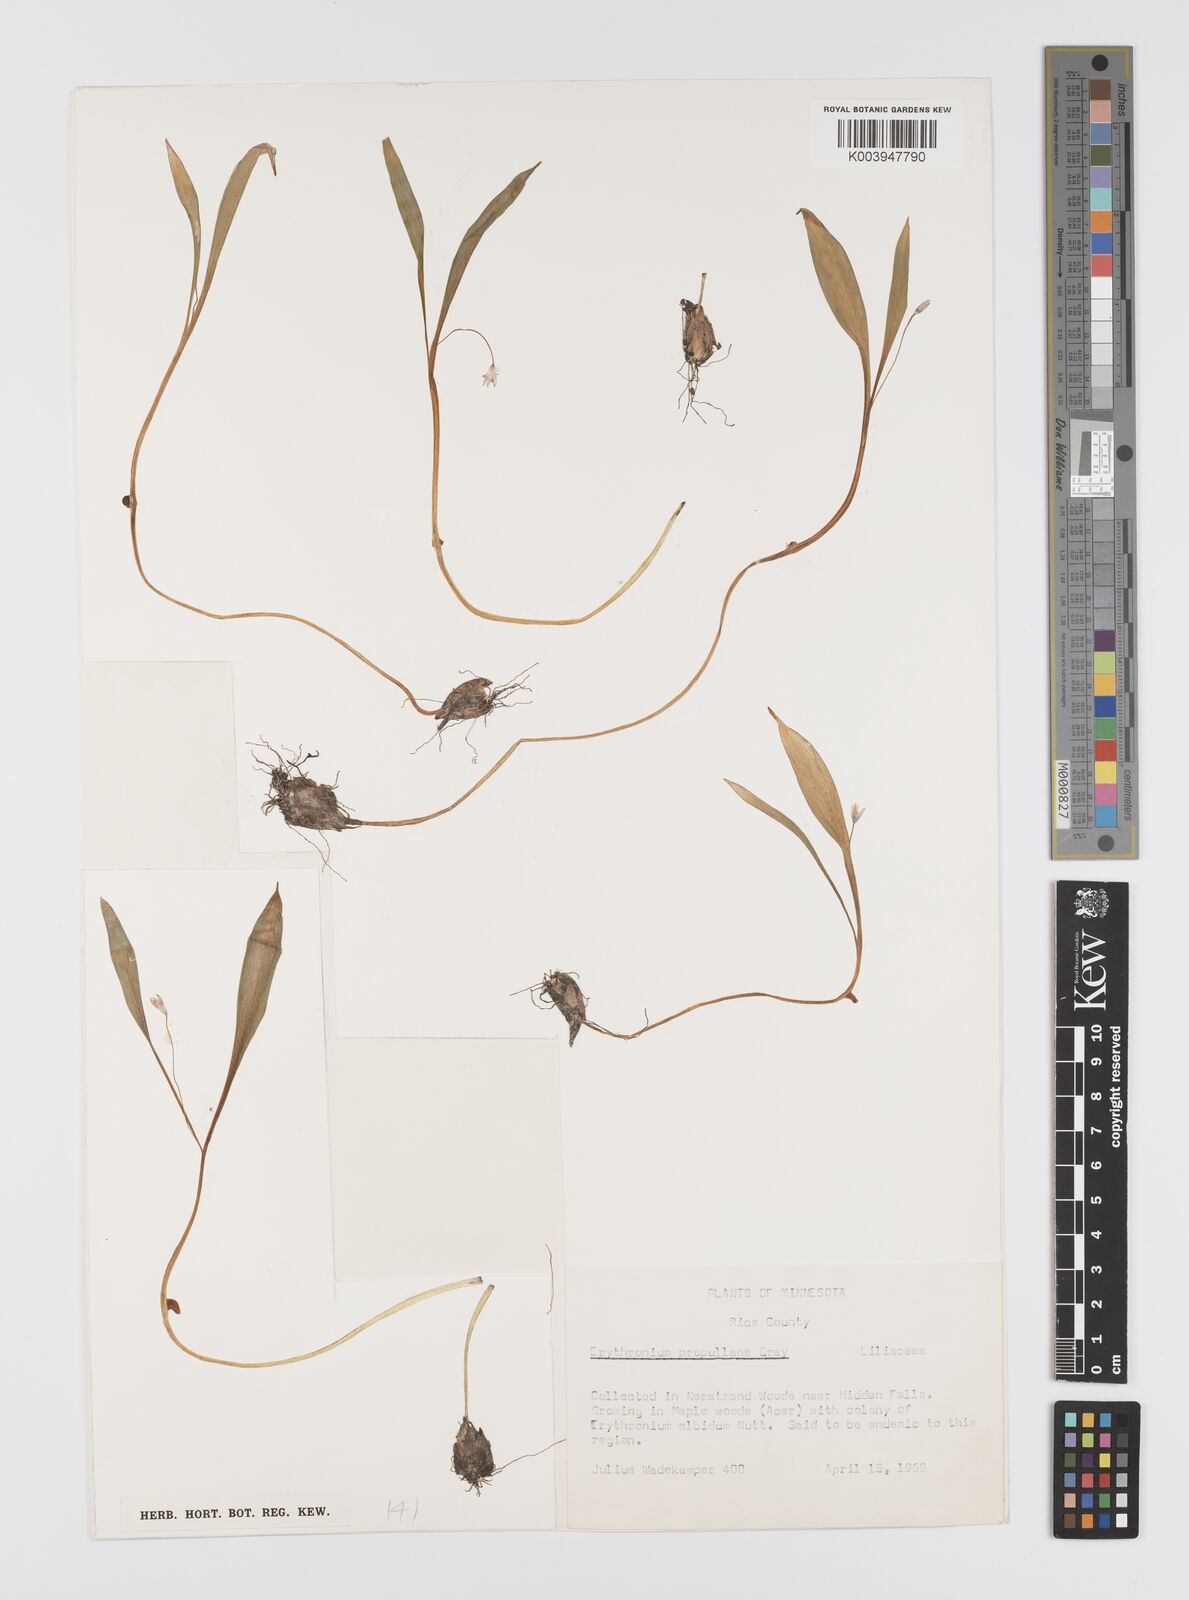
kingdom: Plantae
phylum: Tracheophyta
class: Liliopsida
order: Liliales
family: Liliaceae
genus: Erythronium
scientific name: Erythronium propullans
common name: Minnesota dwarf trout-lily
